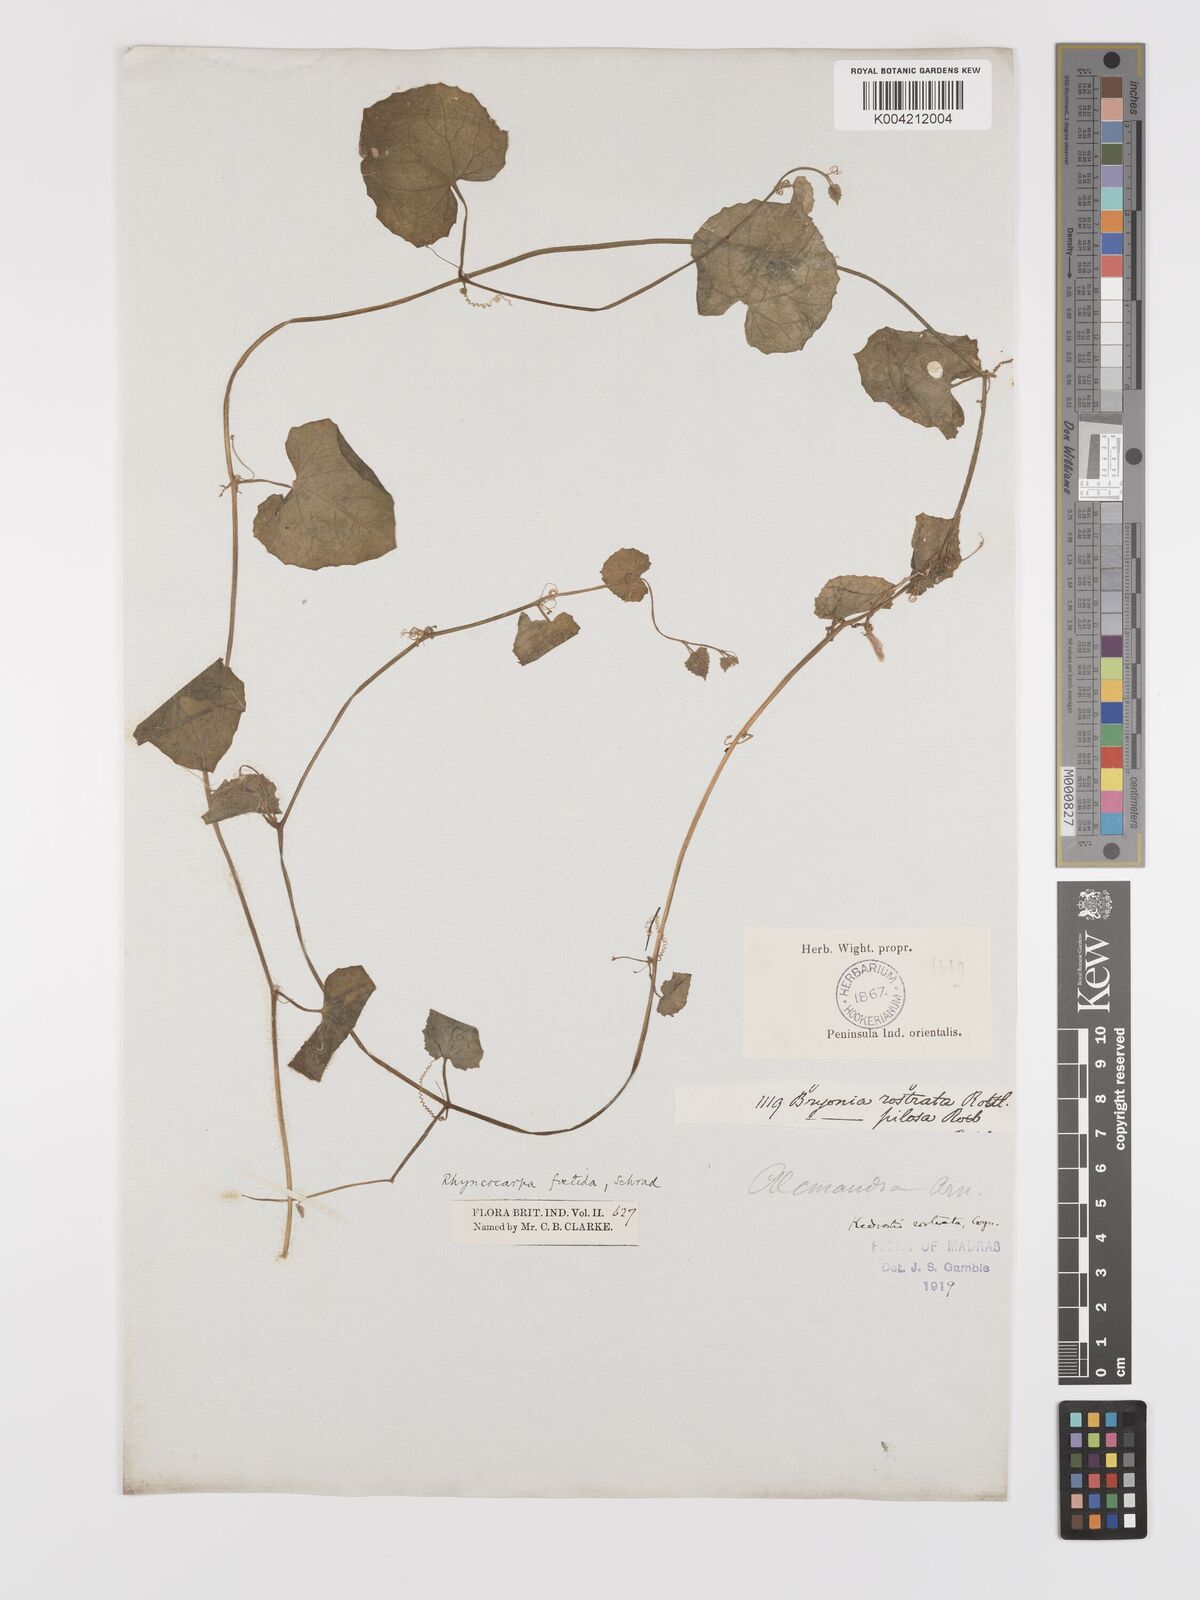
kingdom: Plantae
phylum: Tracheophyta
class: Magnoliopsida
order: Cucurbitales
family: Cucurbitaceae
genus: Kedrostis
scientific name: Kedrostis foetidissima
